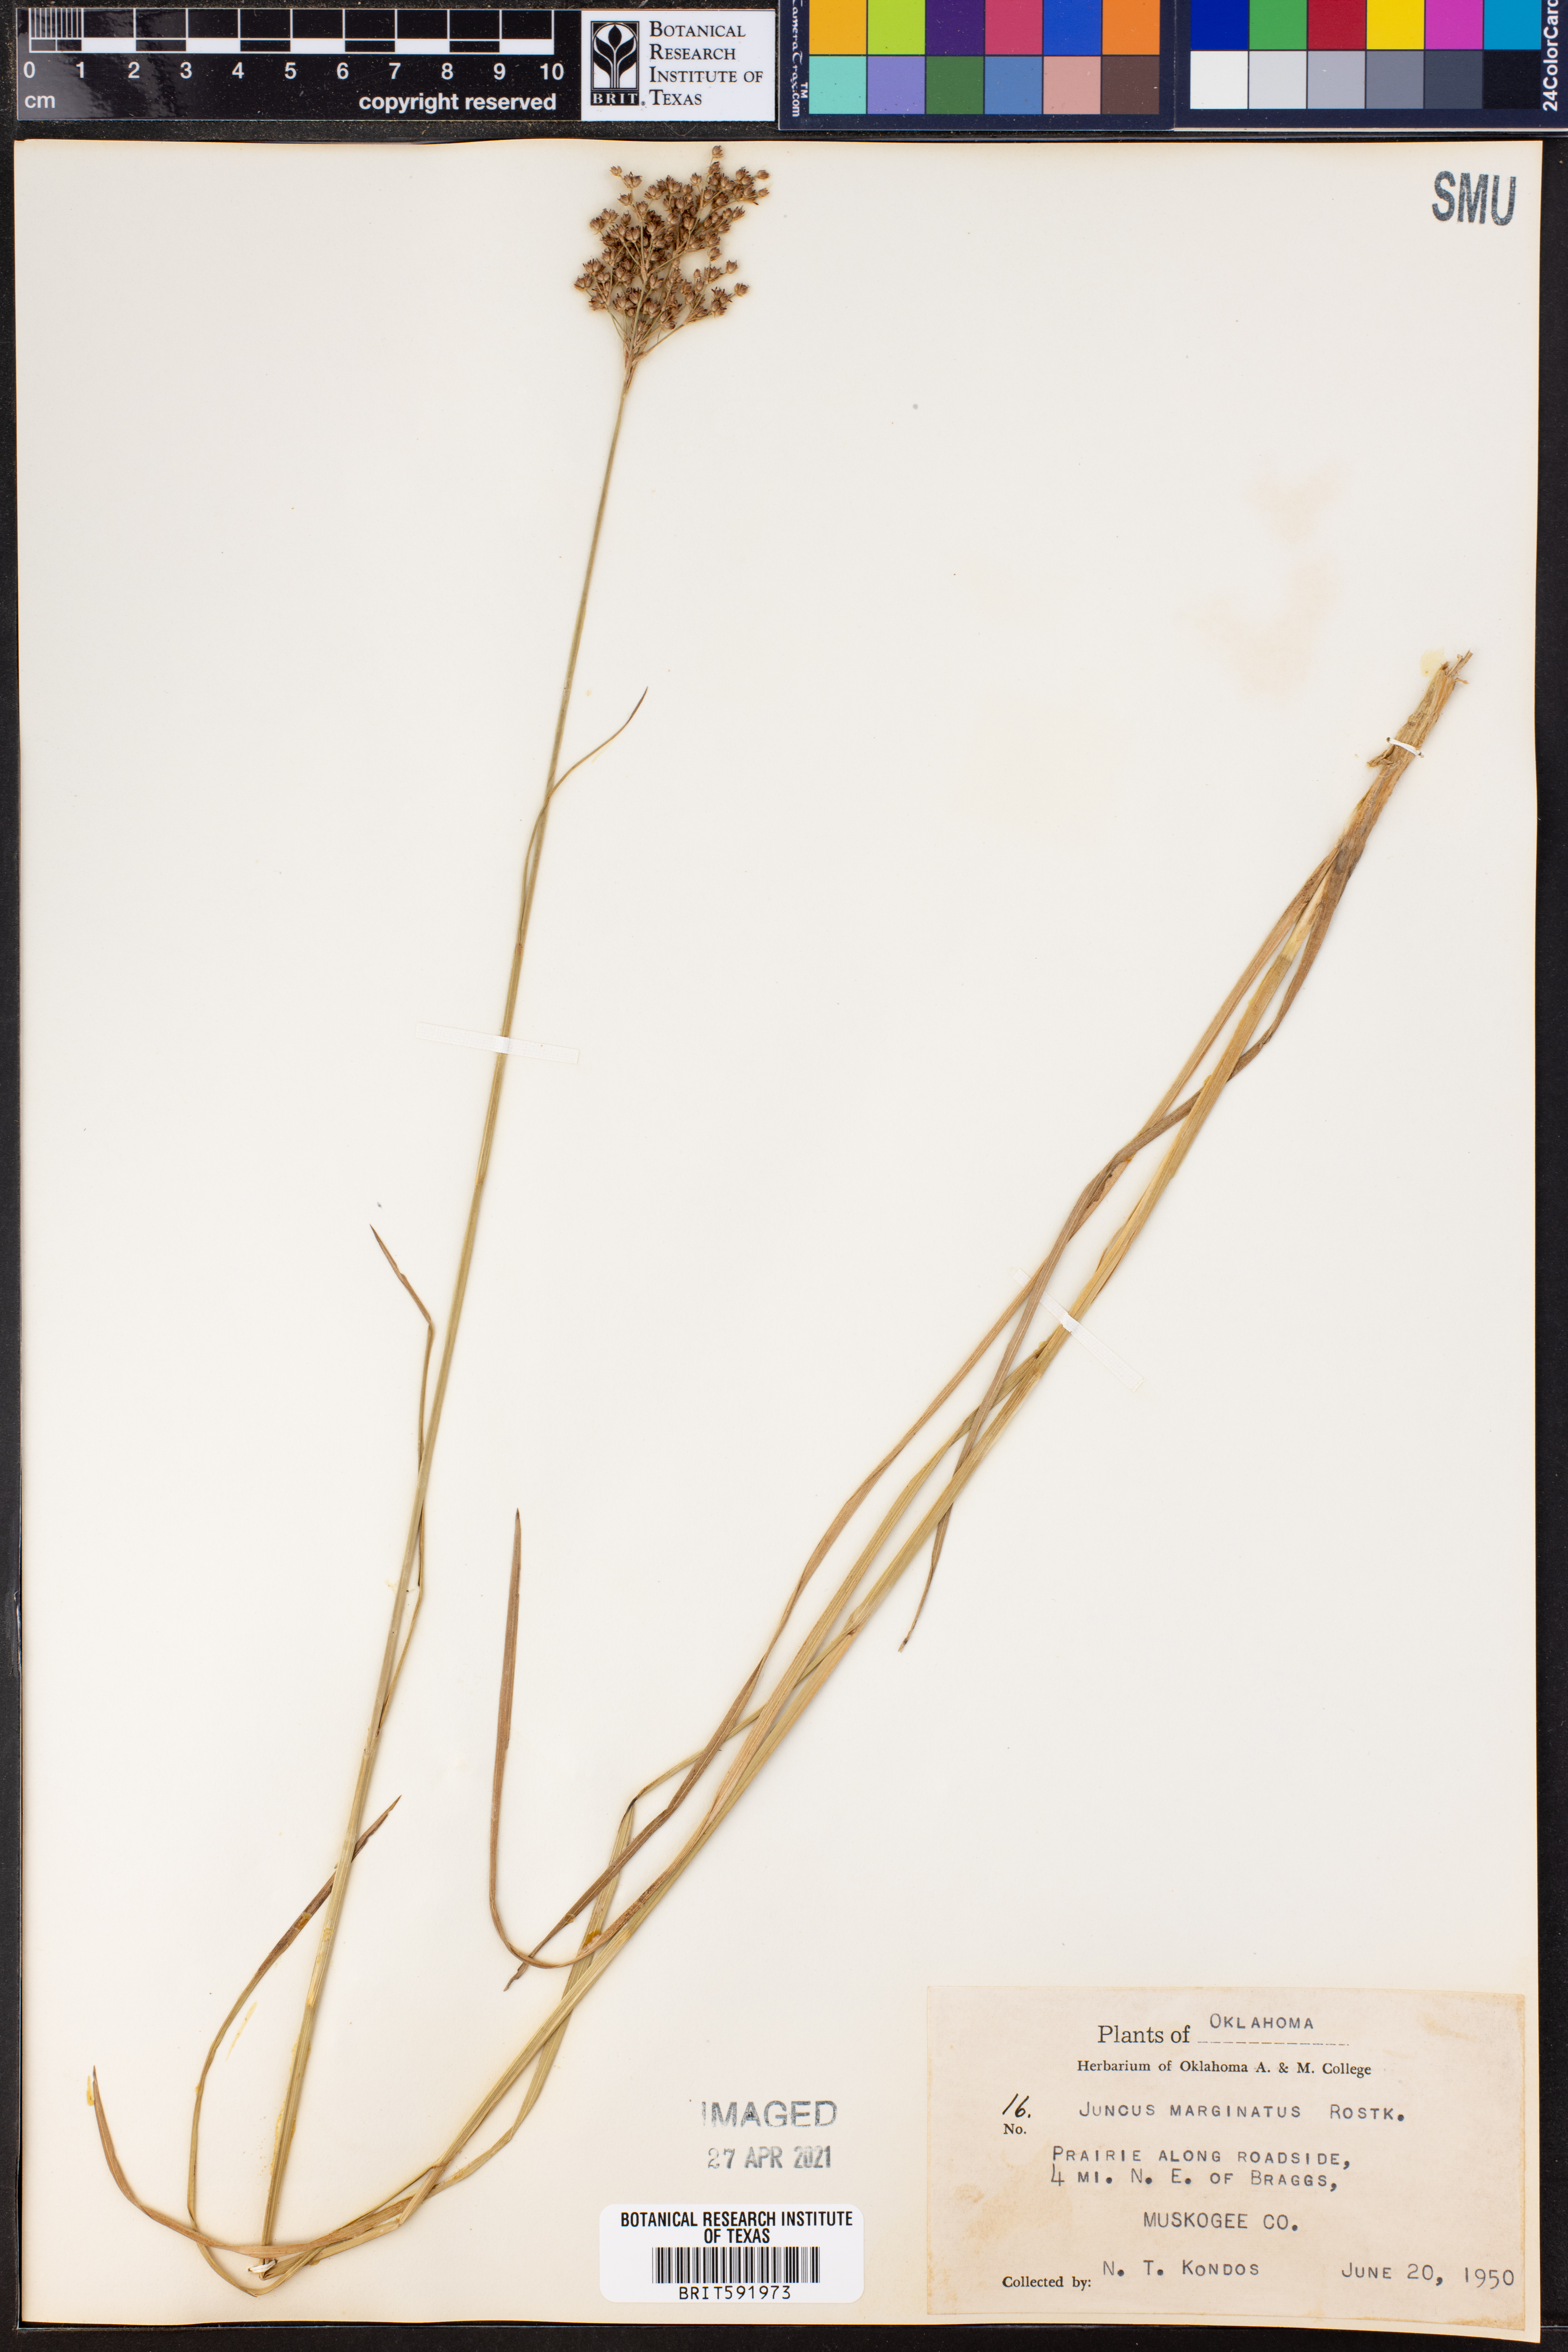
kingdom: Plantae
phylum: Tracheophyta
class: Liliopsida
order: Poales
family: Juncaceae
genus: Juncus
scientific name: Juncus marginatus
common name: Grass-leaf rush
